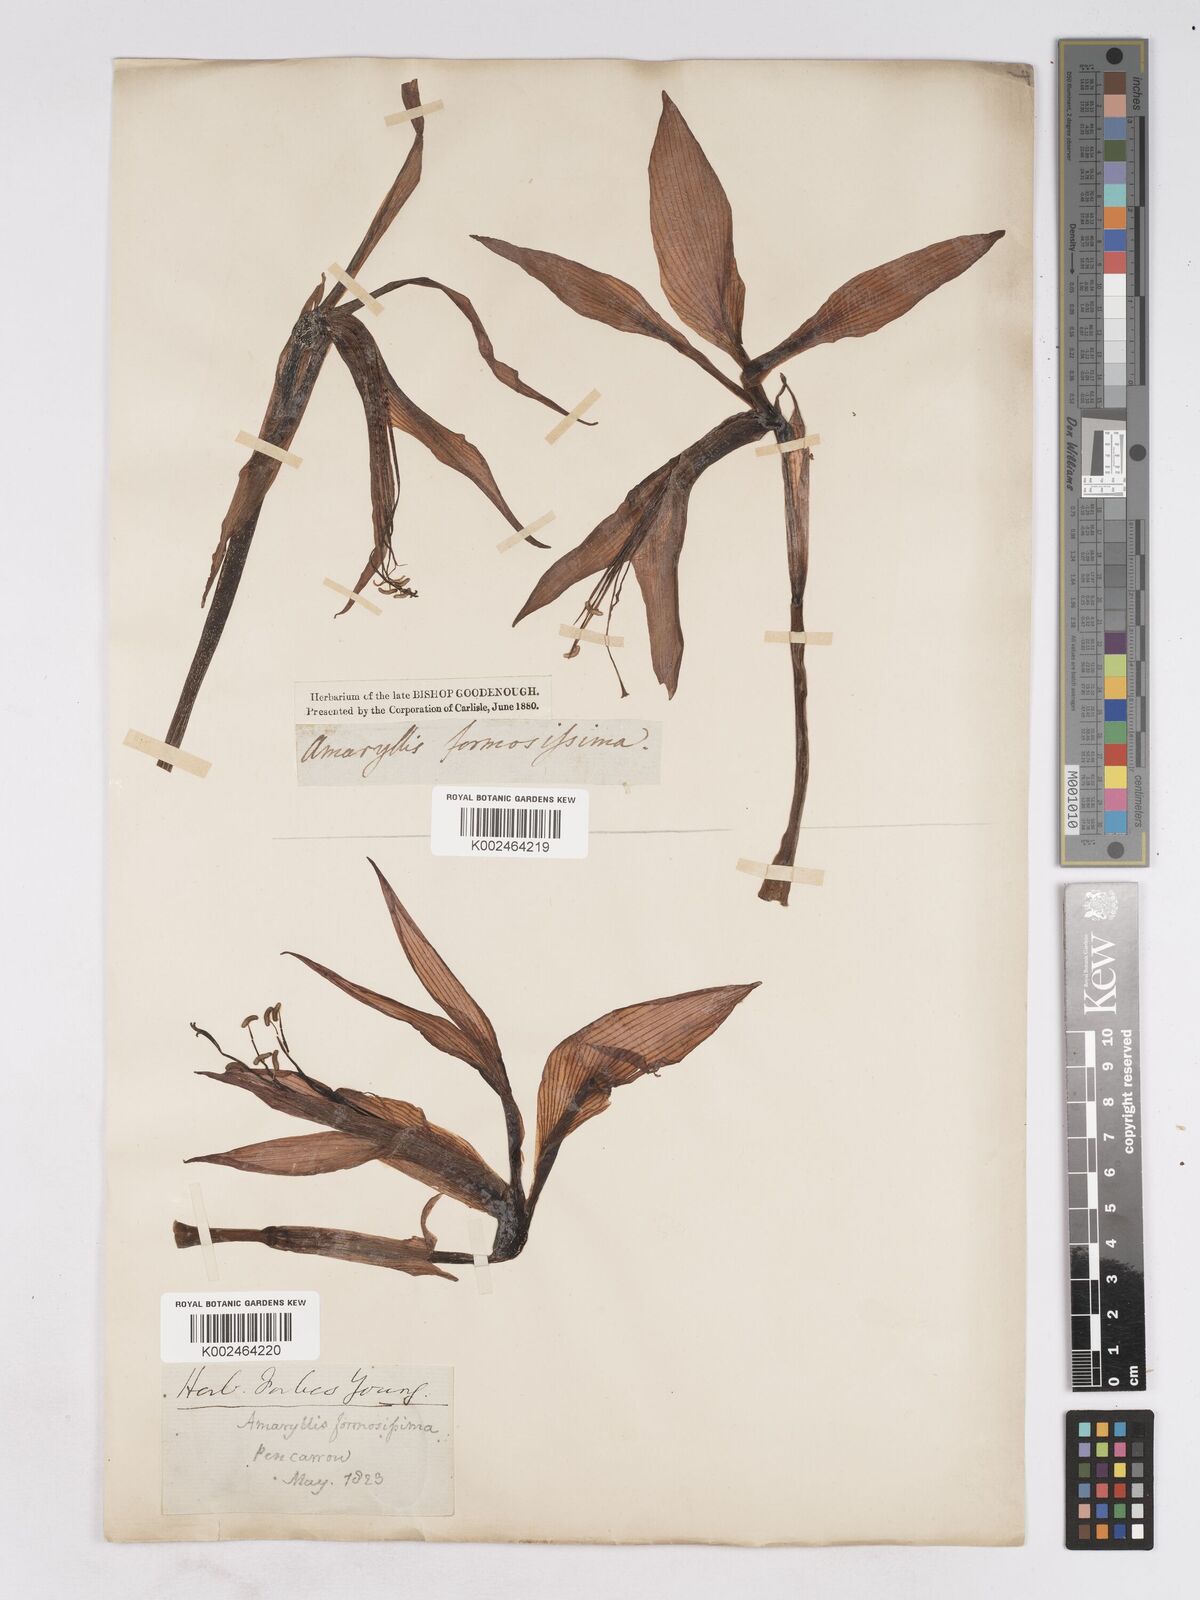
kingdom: Plantae
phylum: Tracheophyta
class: Liliopsida
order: Asparagales
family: Amaryllidaceae
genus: Sprekelia
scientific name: Sprekelia formosissima
